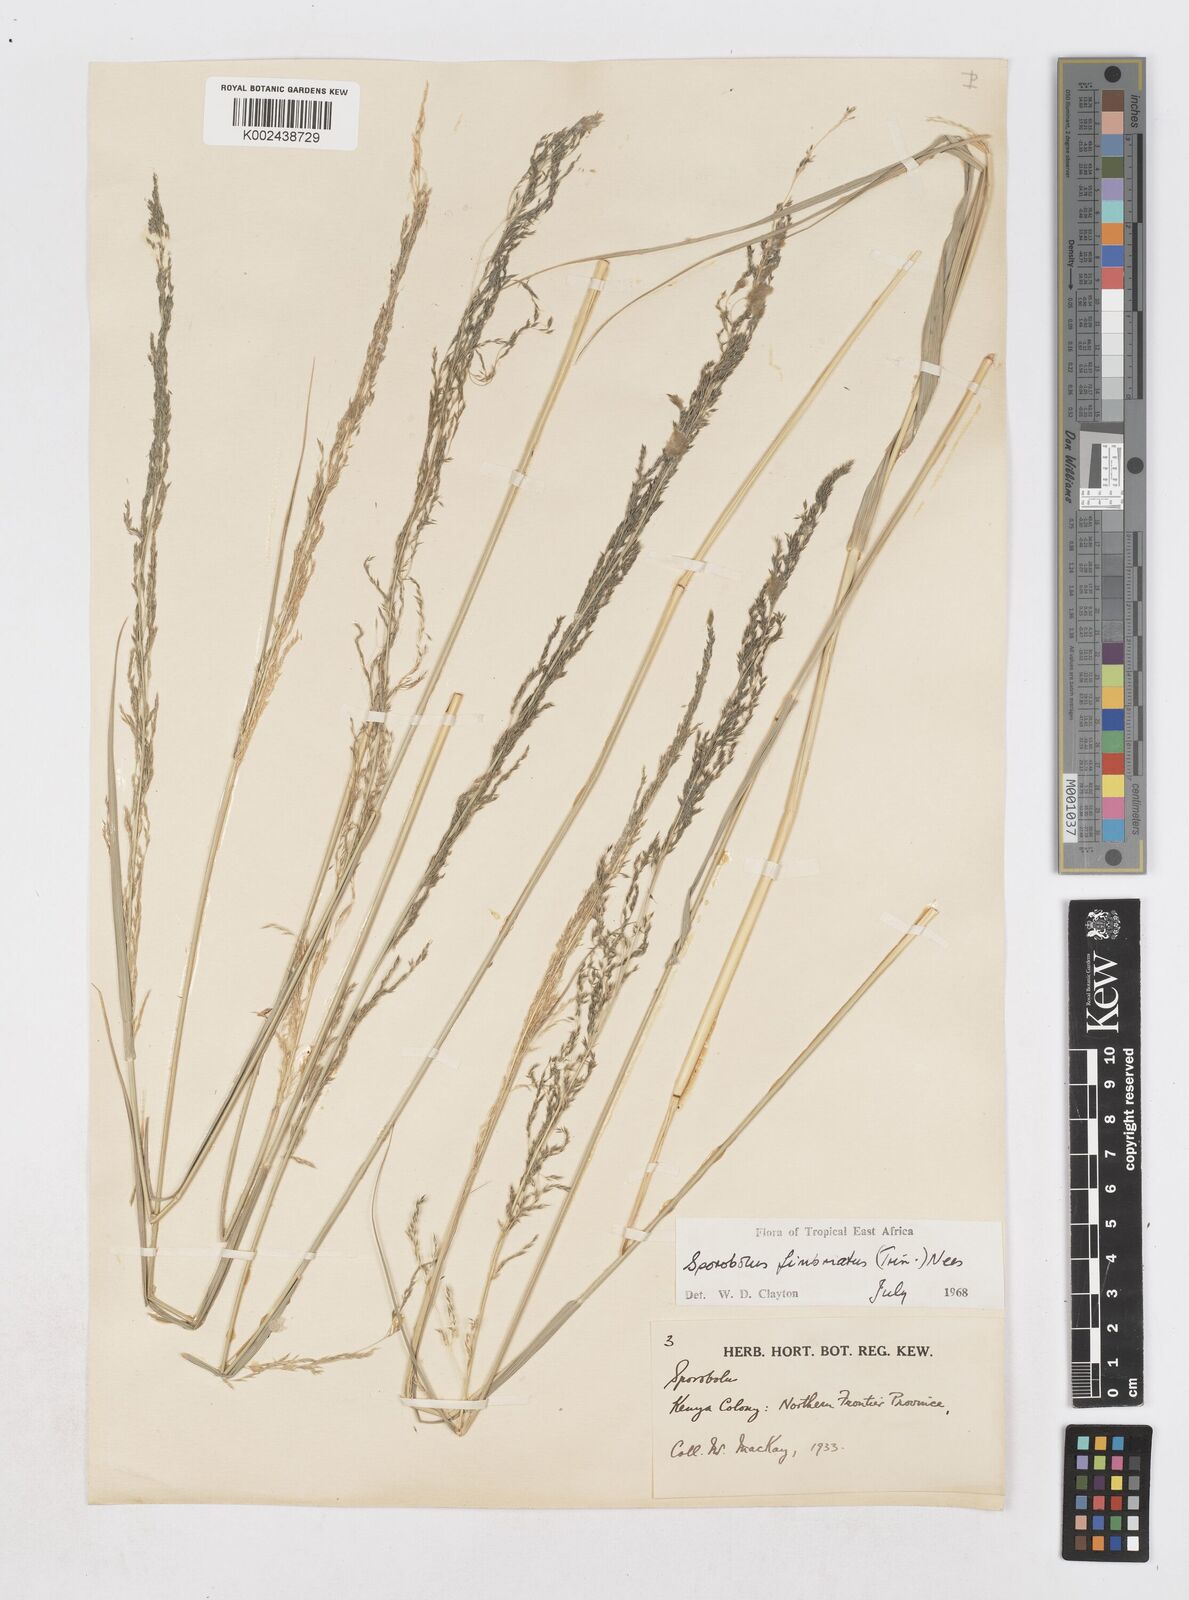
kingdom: Plantae
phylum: Tracheophyta
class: Liliopsida
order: Poales
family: Poaceae
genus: Sporobolus
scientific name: Sporobolus fimbriatus
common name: Fringed dropseed
